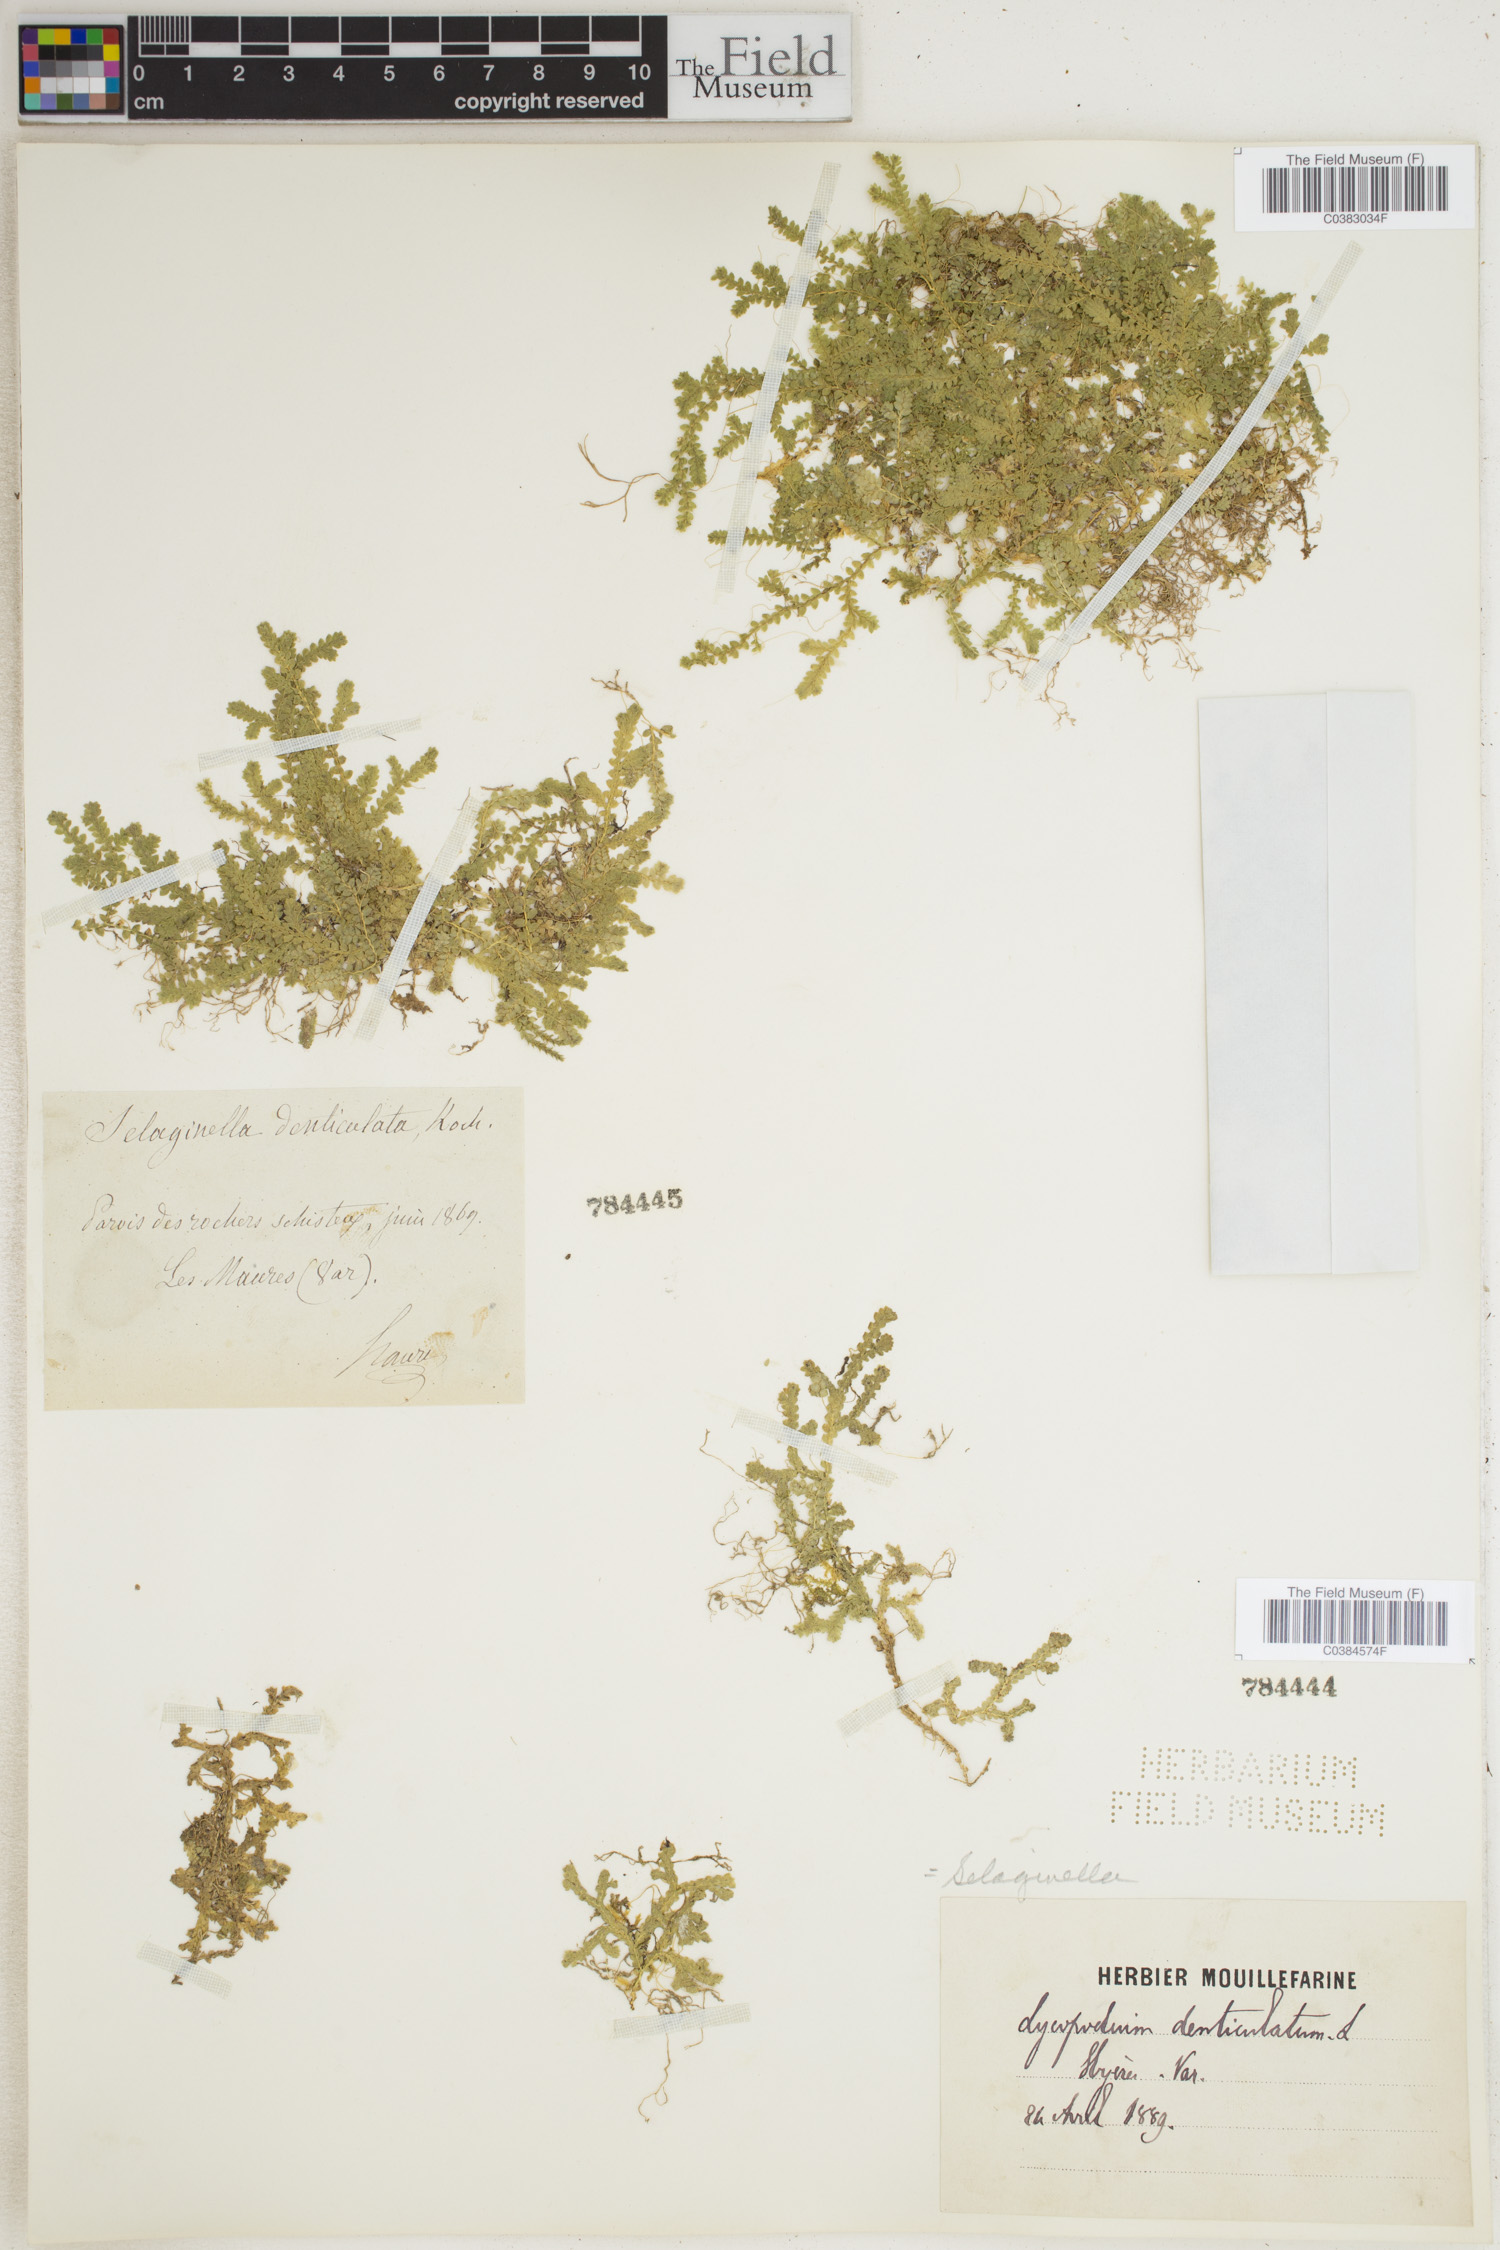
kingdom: Plantae
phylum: Tracheophyta
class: Lycopodiopsida
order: Selaginellales
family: Selaginellaceae
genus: Selaginella
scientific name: Selaginella denticulata
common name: Toothed-leaved clubmoss
